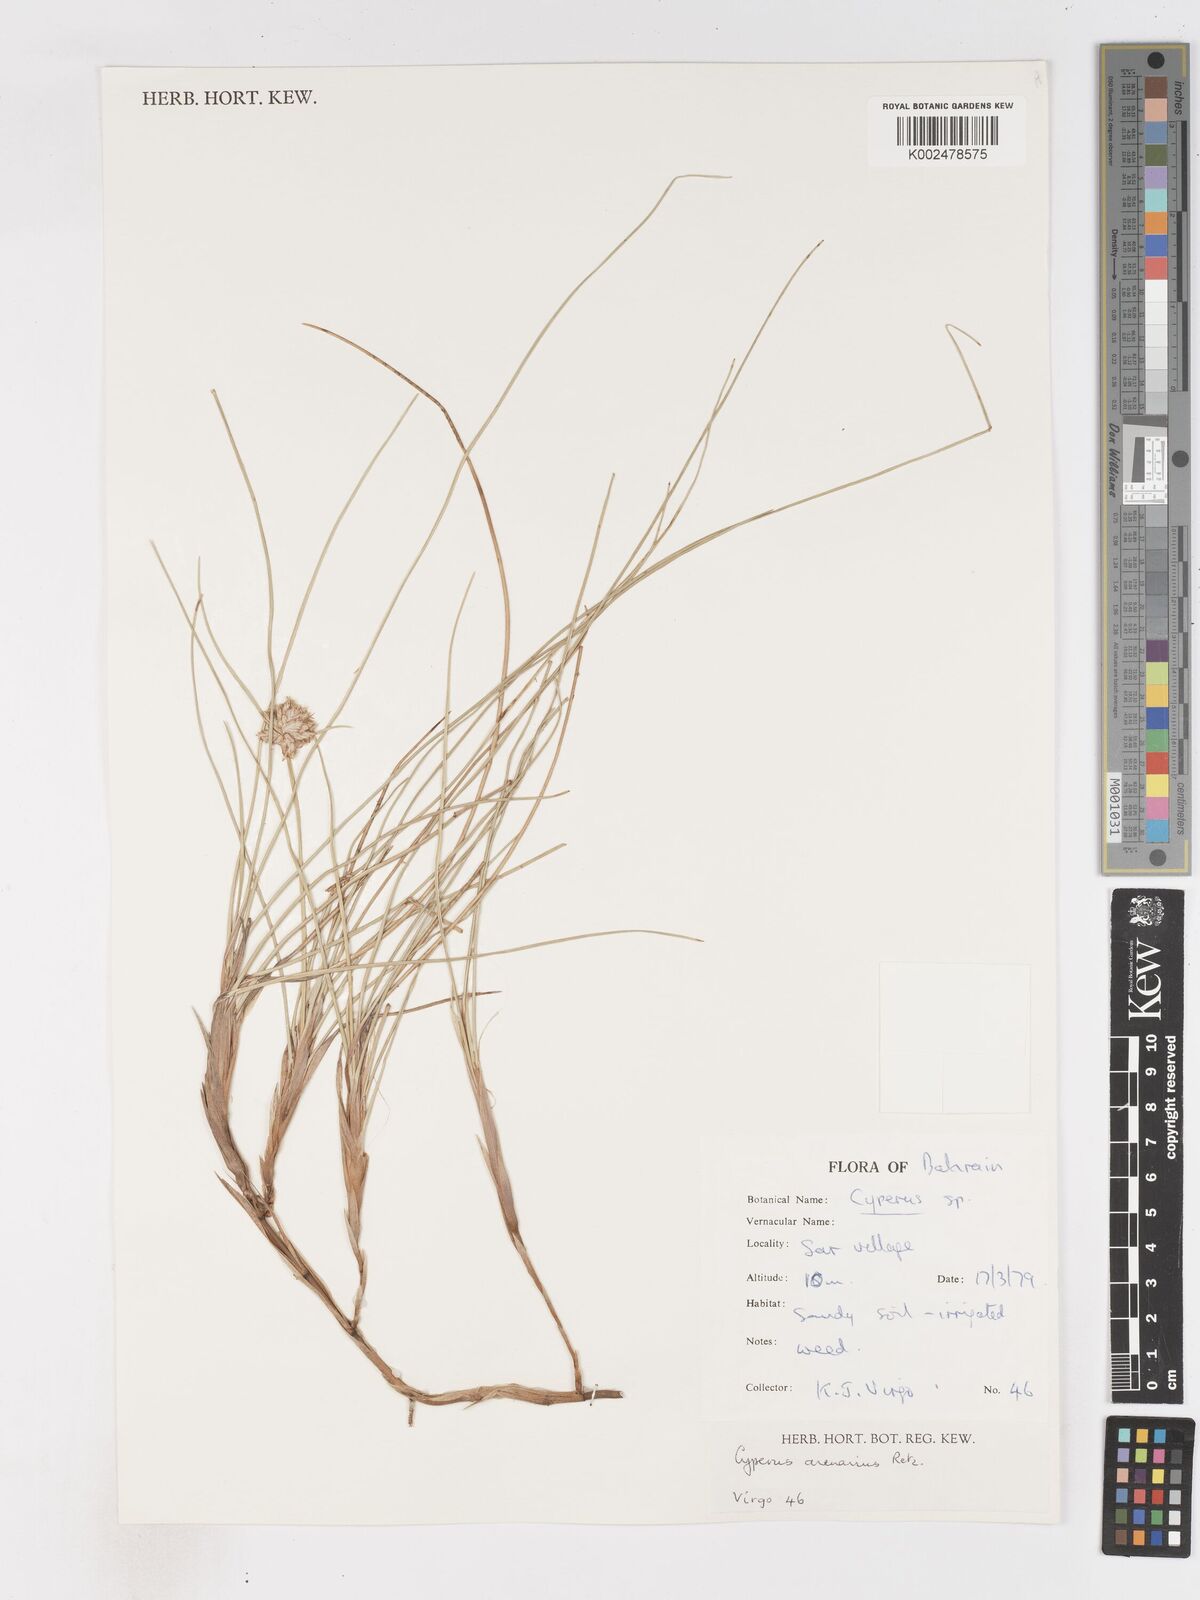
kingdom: Plantae
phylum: Tracheophyta
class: Liliopsida
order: Poales
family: Cyperaceae
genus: Cyperus
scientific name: Cyperus arenarius
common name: Dwarf sedge
